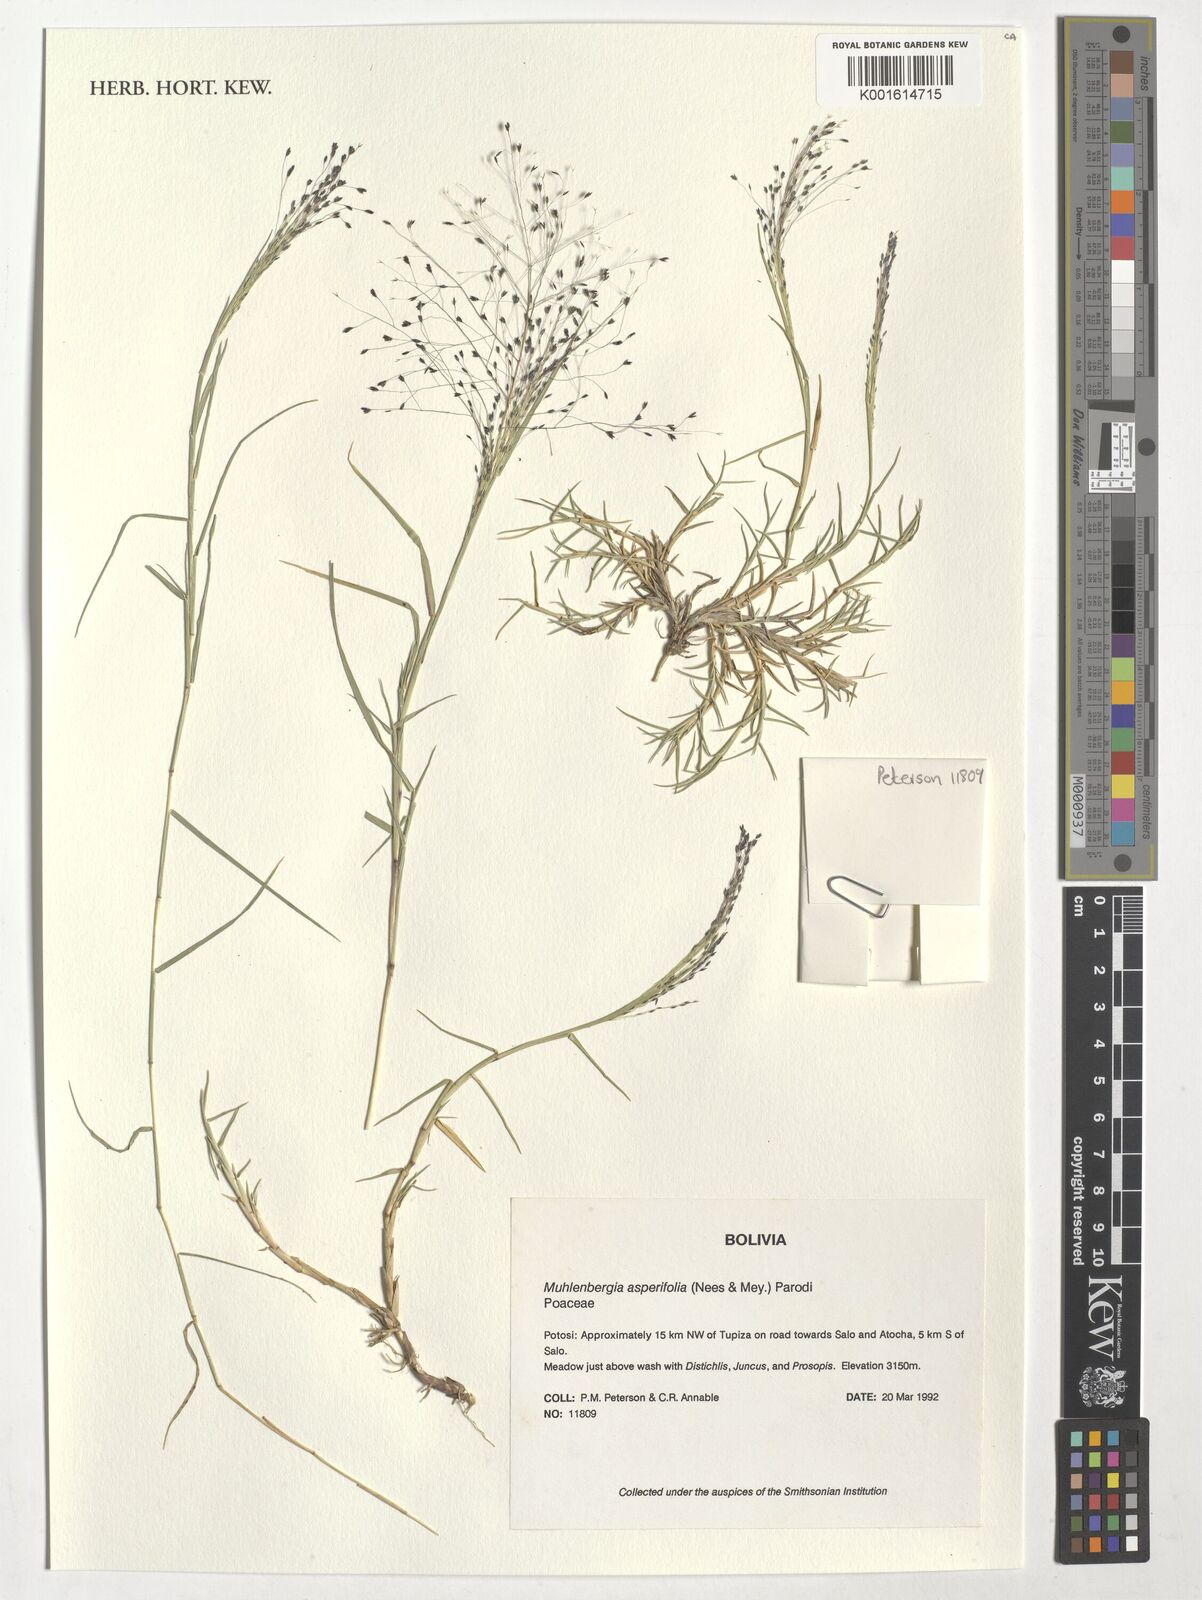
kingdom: Plantae
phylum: Tracheophyta
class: Liliopsida
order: Poales
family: Poaceae
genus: Muhlenbergia
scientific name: Muhlenbergia asperifolia
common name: Alkali muhly
